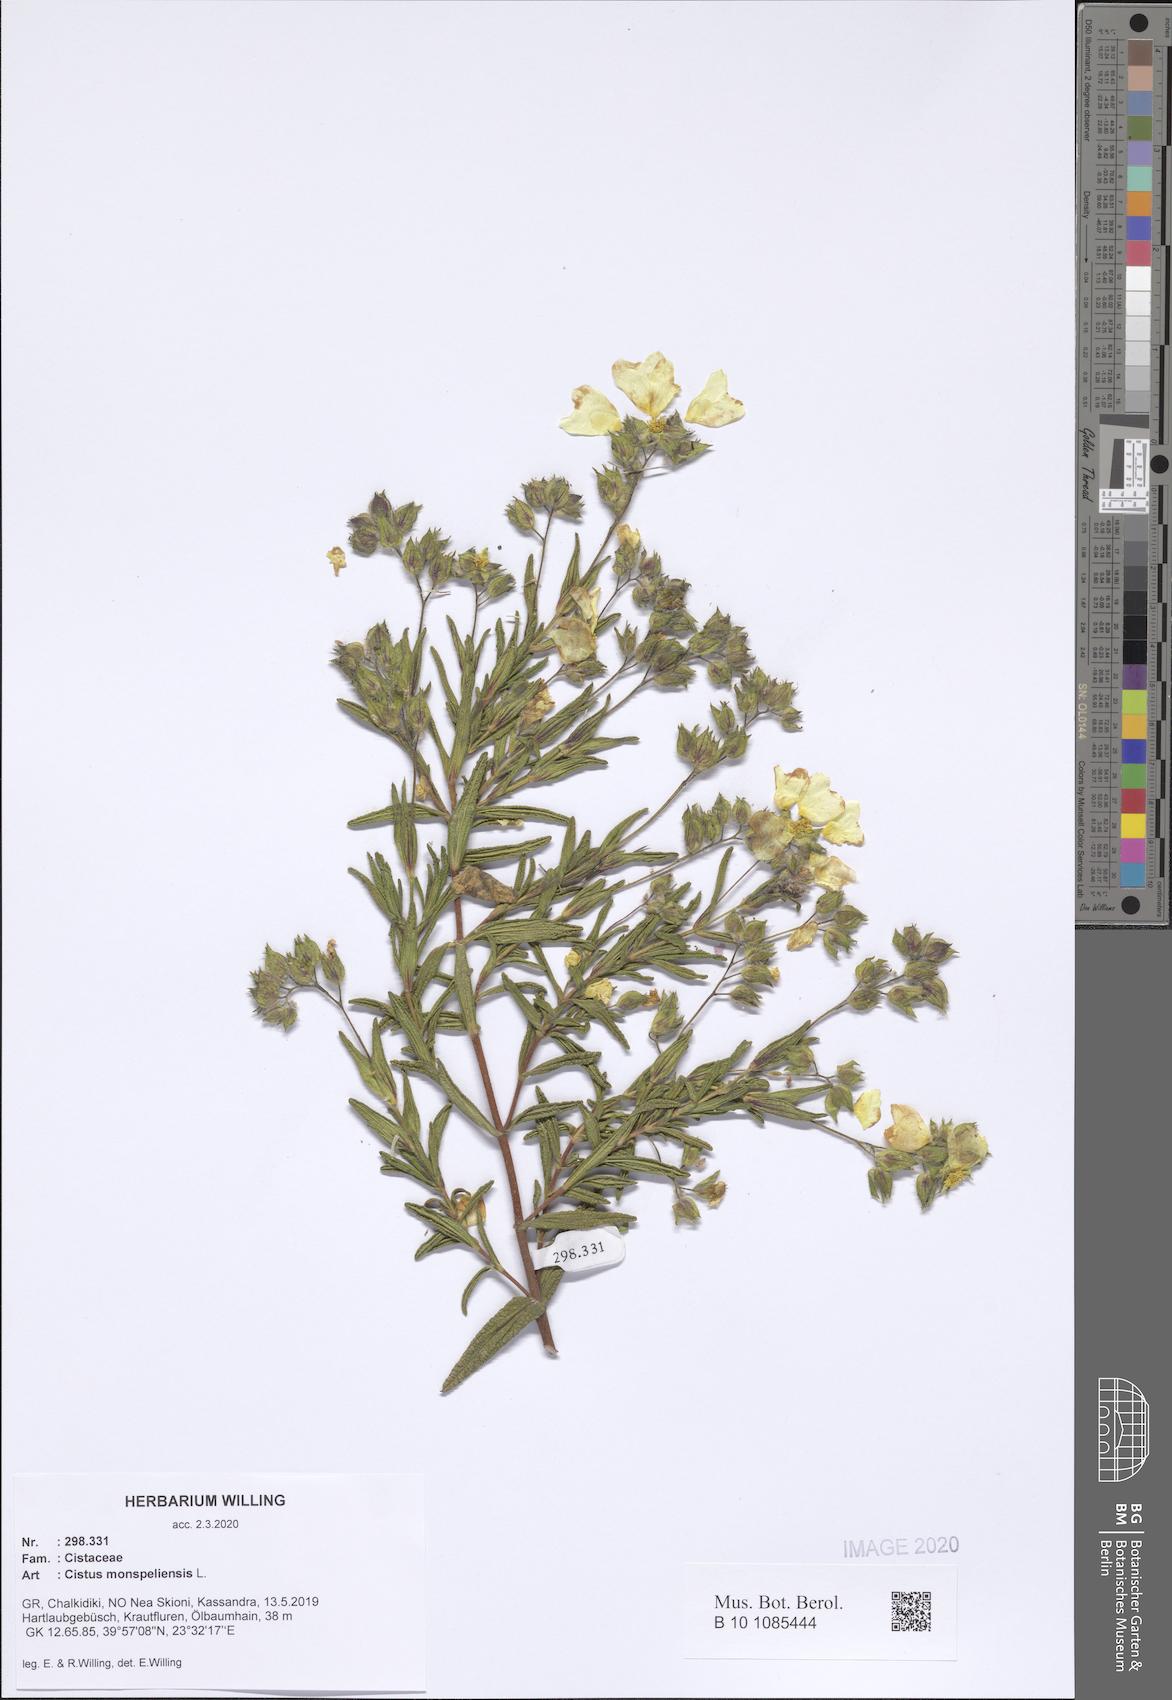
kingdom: Plantae
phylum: Tracheophyta
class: Magnoliopsida
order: Malvales
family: Cistaceae
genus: Cistus
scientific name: Cistus monspeliensis
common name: Montpelier cistus
